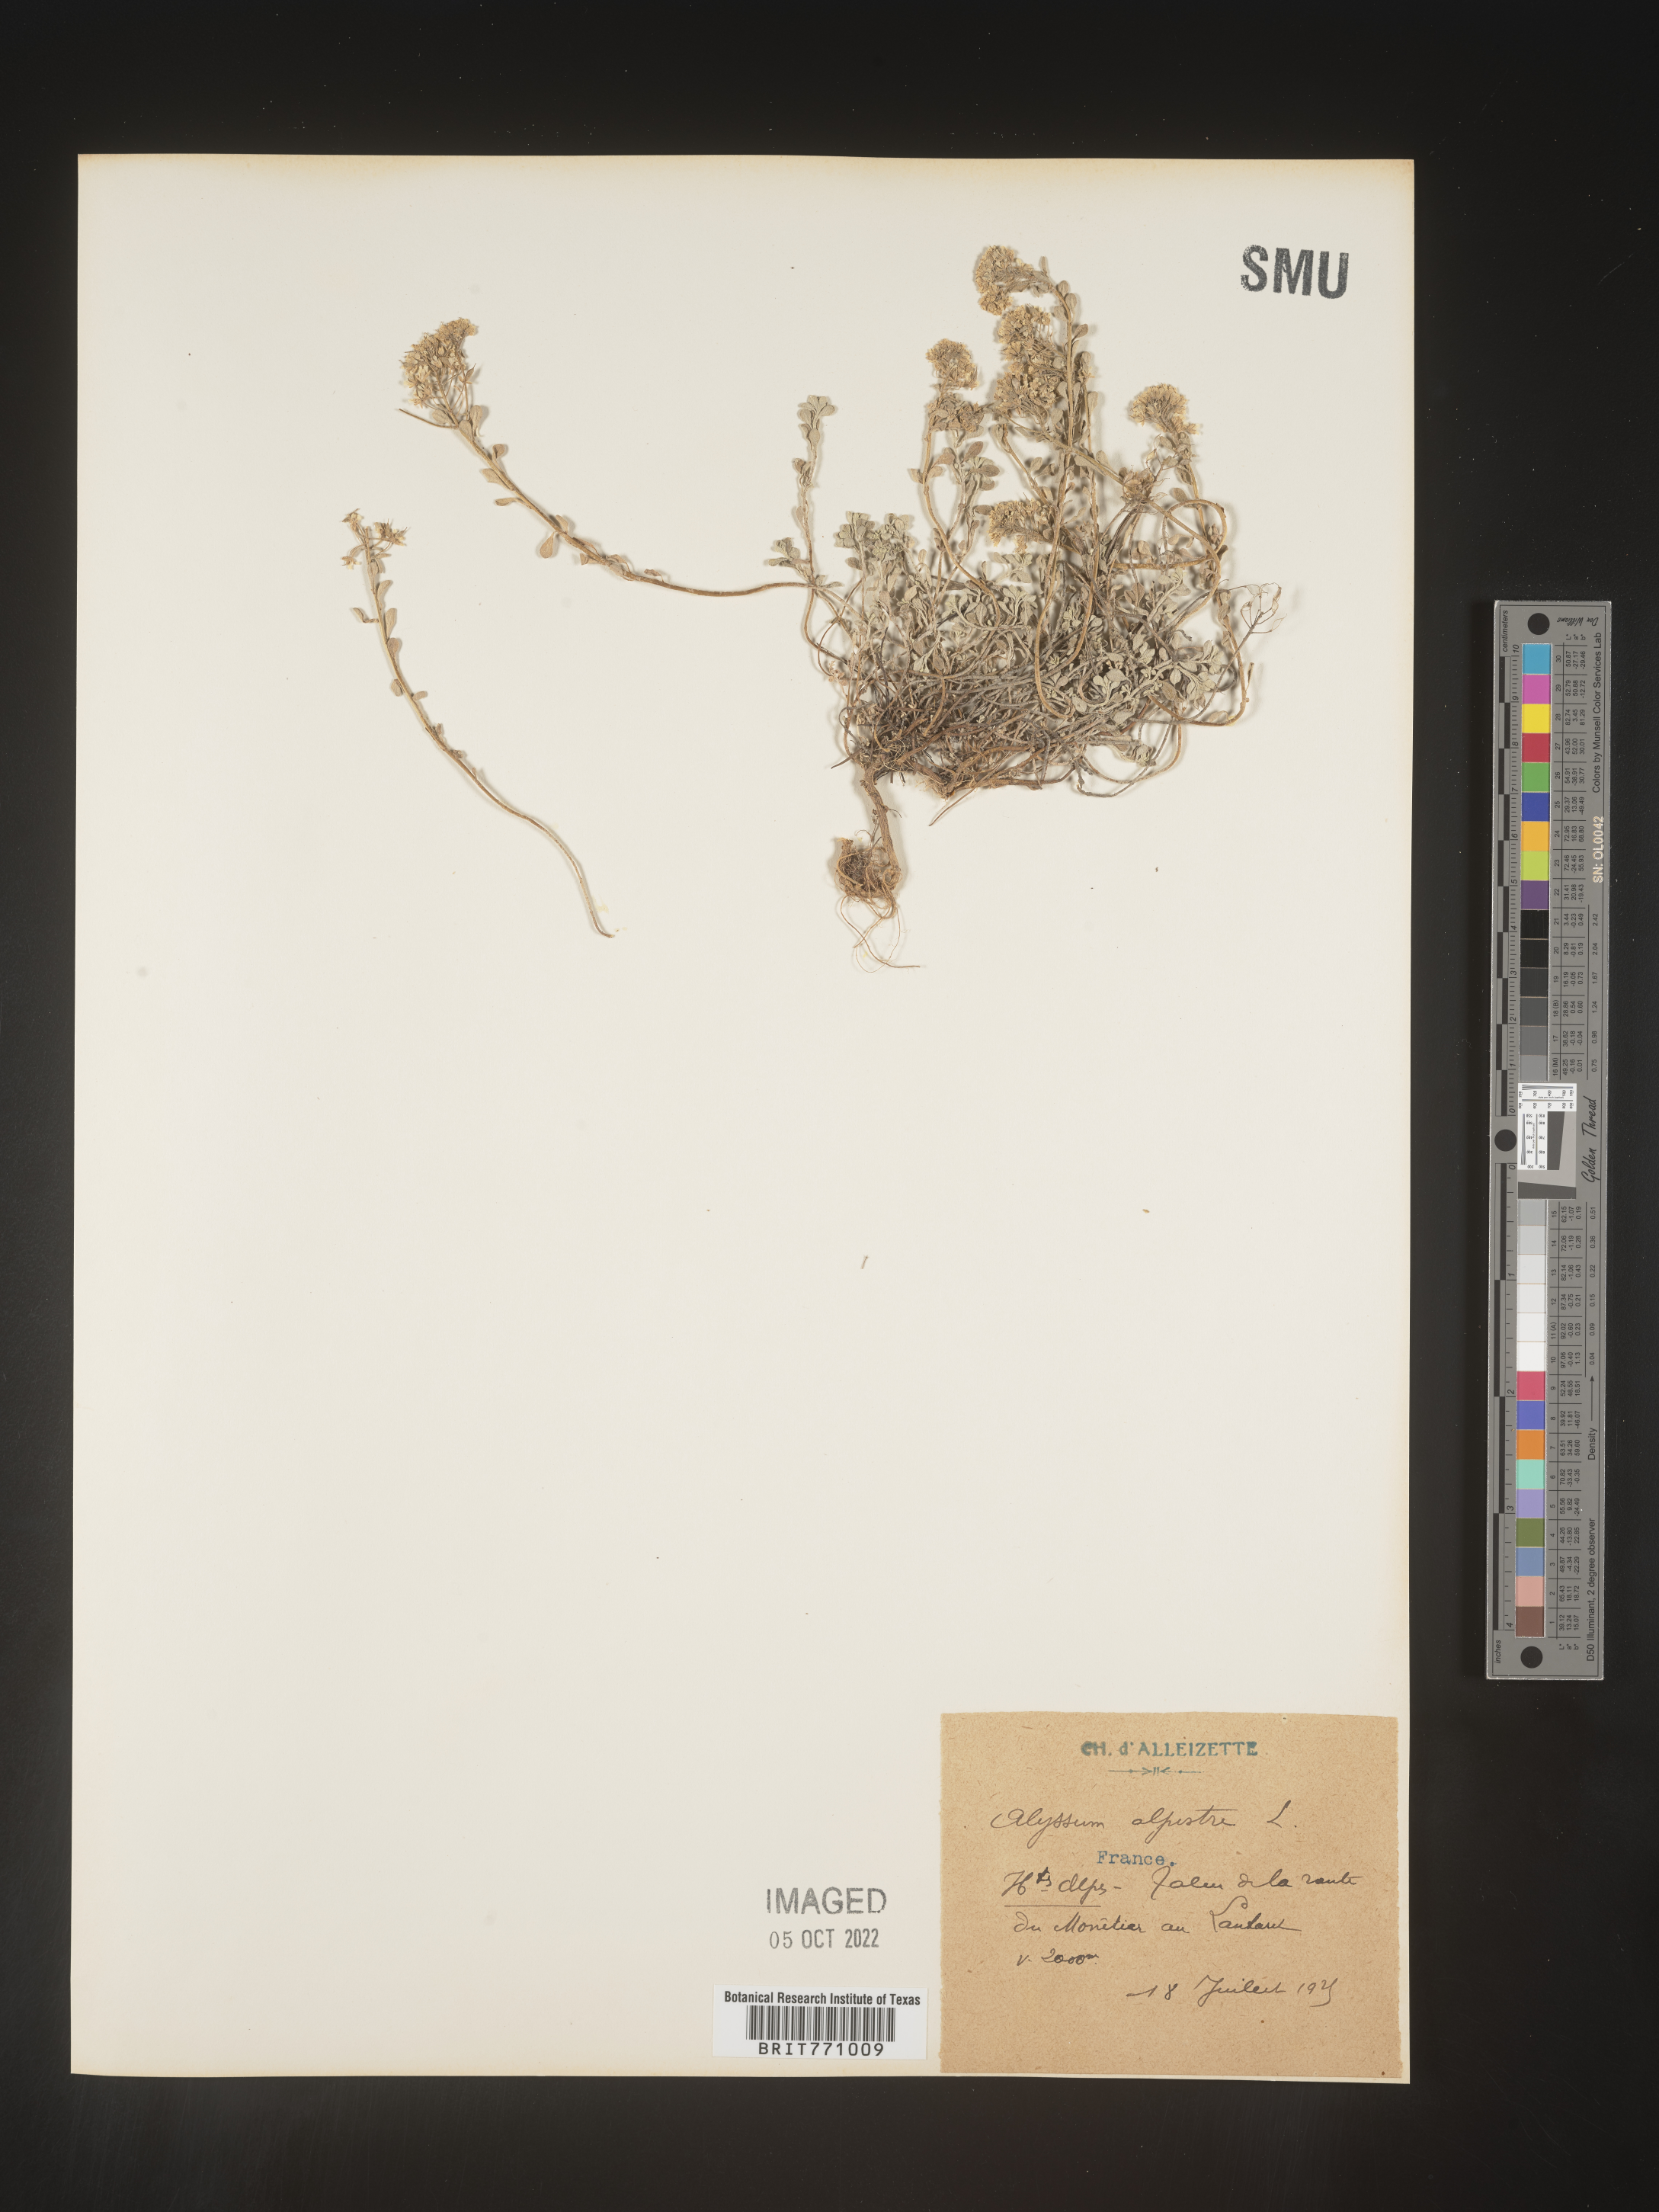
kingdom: Plantae
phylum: Tracheophyta
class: Magnoliopsida
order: Brassicales
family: Brassicaceae
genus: Alyssum
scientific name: Alyssum
